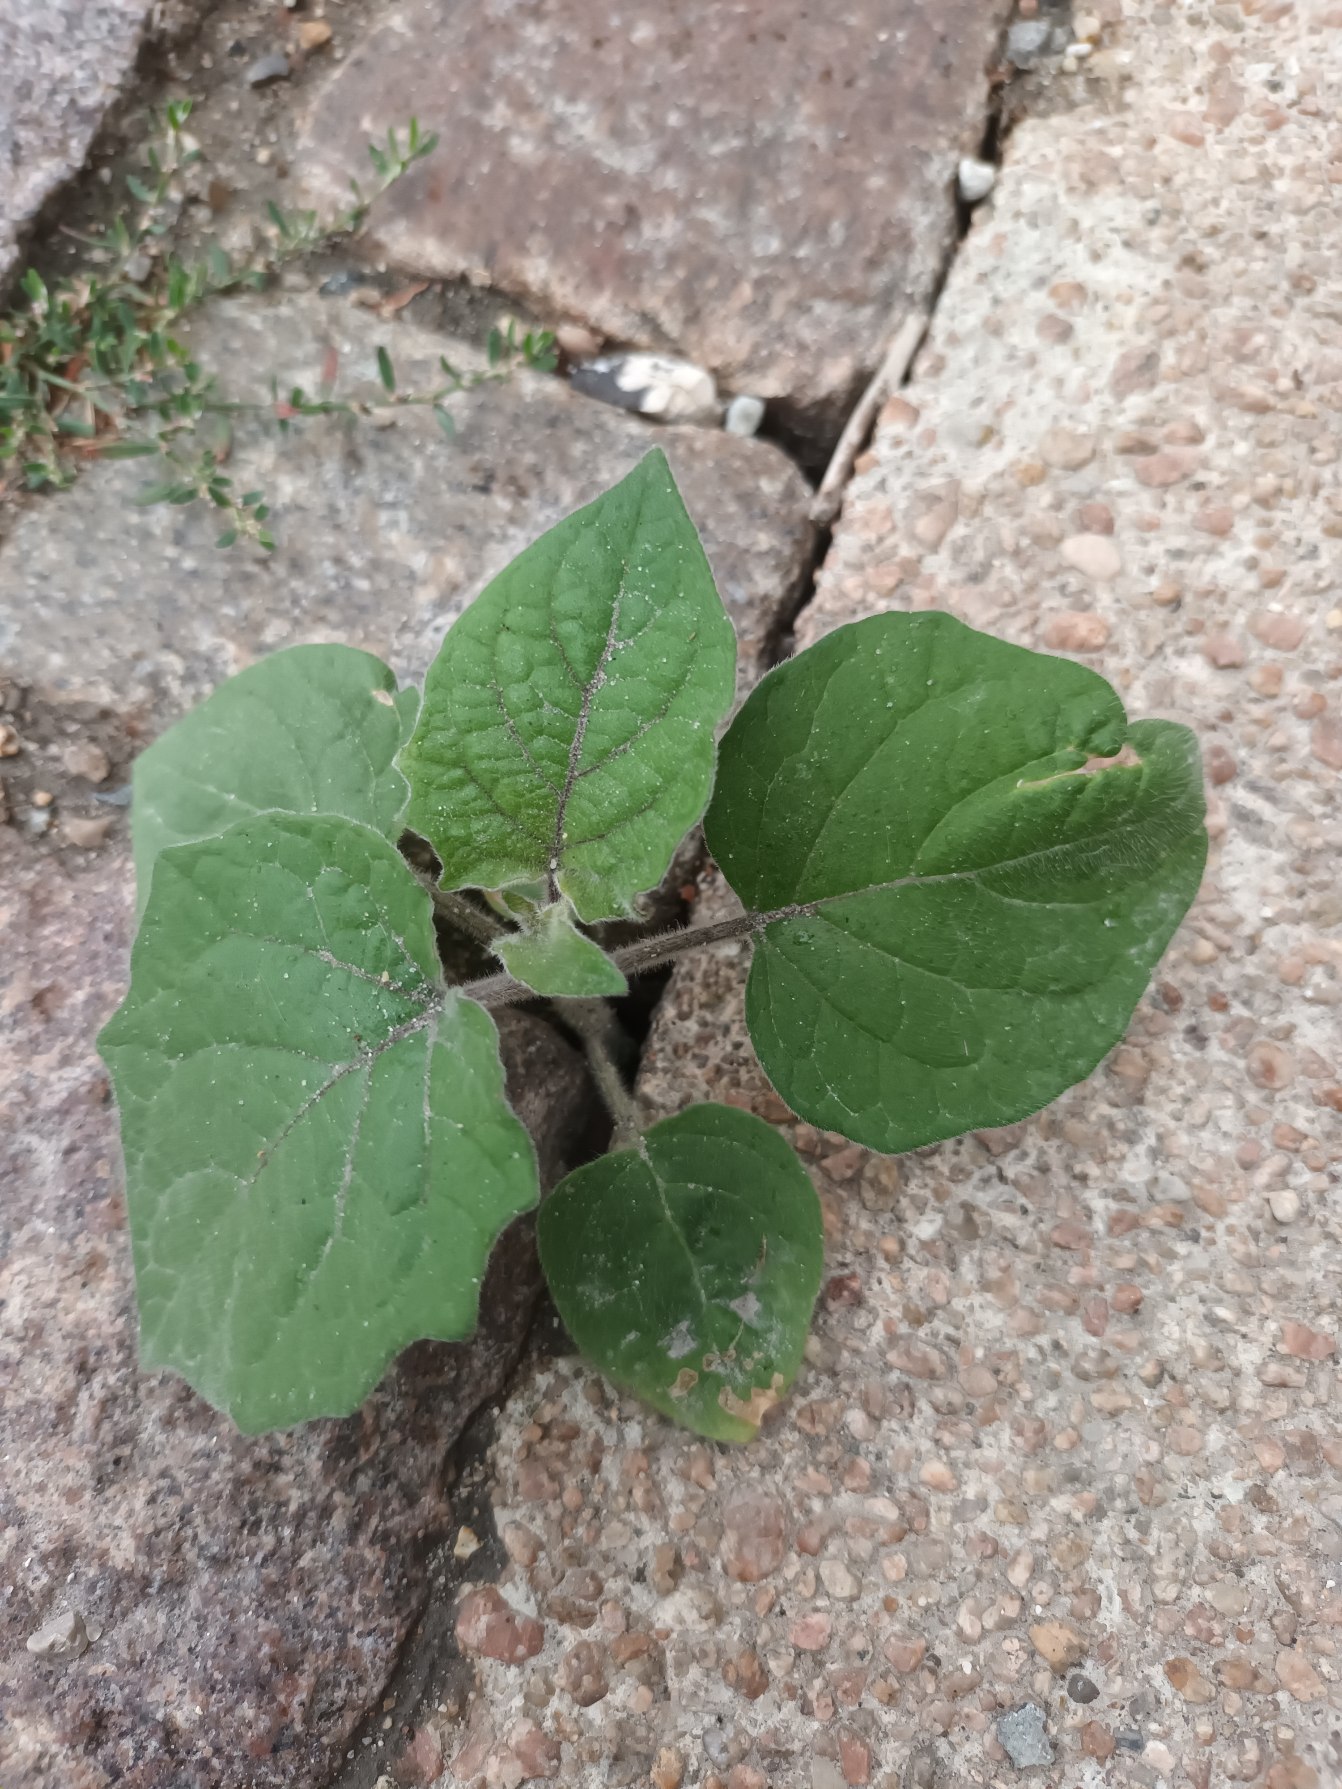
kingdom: Plantae
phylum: Tracheophyta
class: Magnoliopsida
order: Solanales
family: Solanaceae
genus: Physalis
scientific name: Physalis peruviana
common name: Ananaskirsebær
